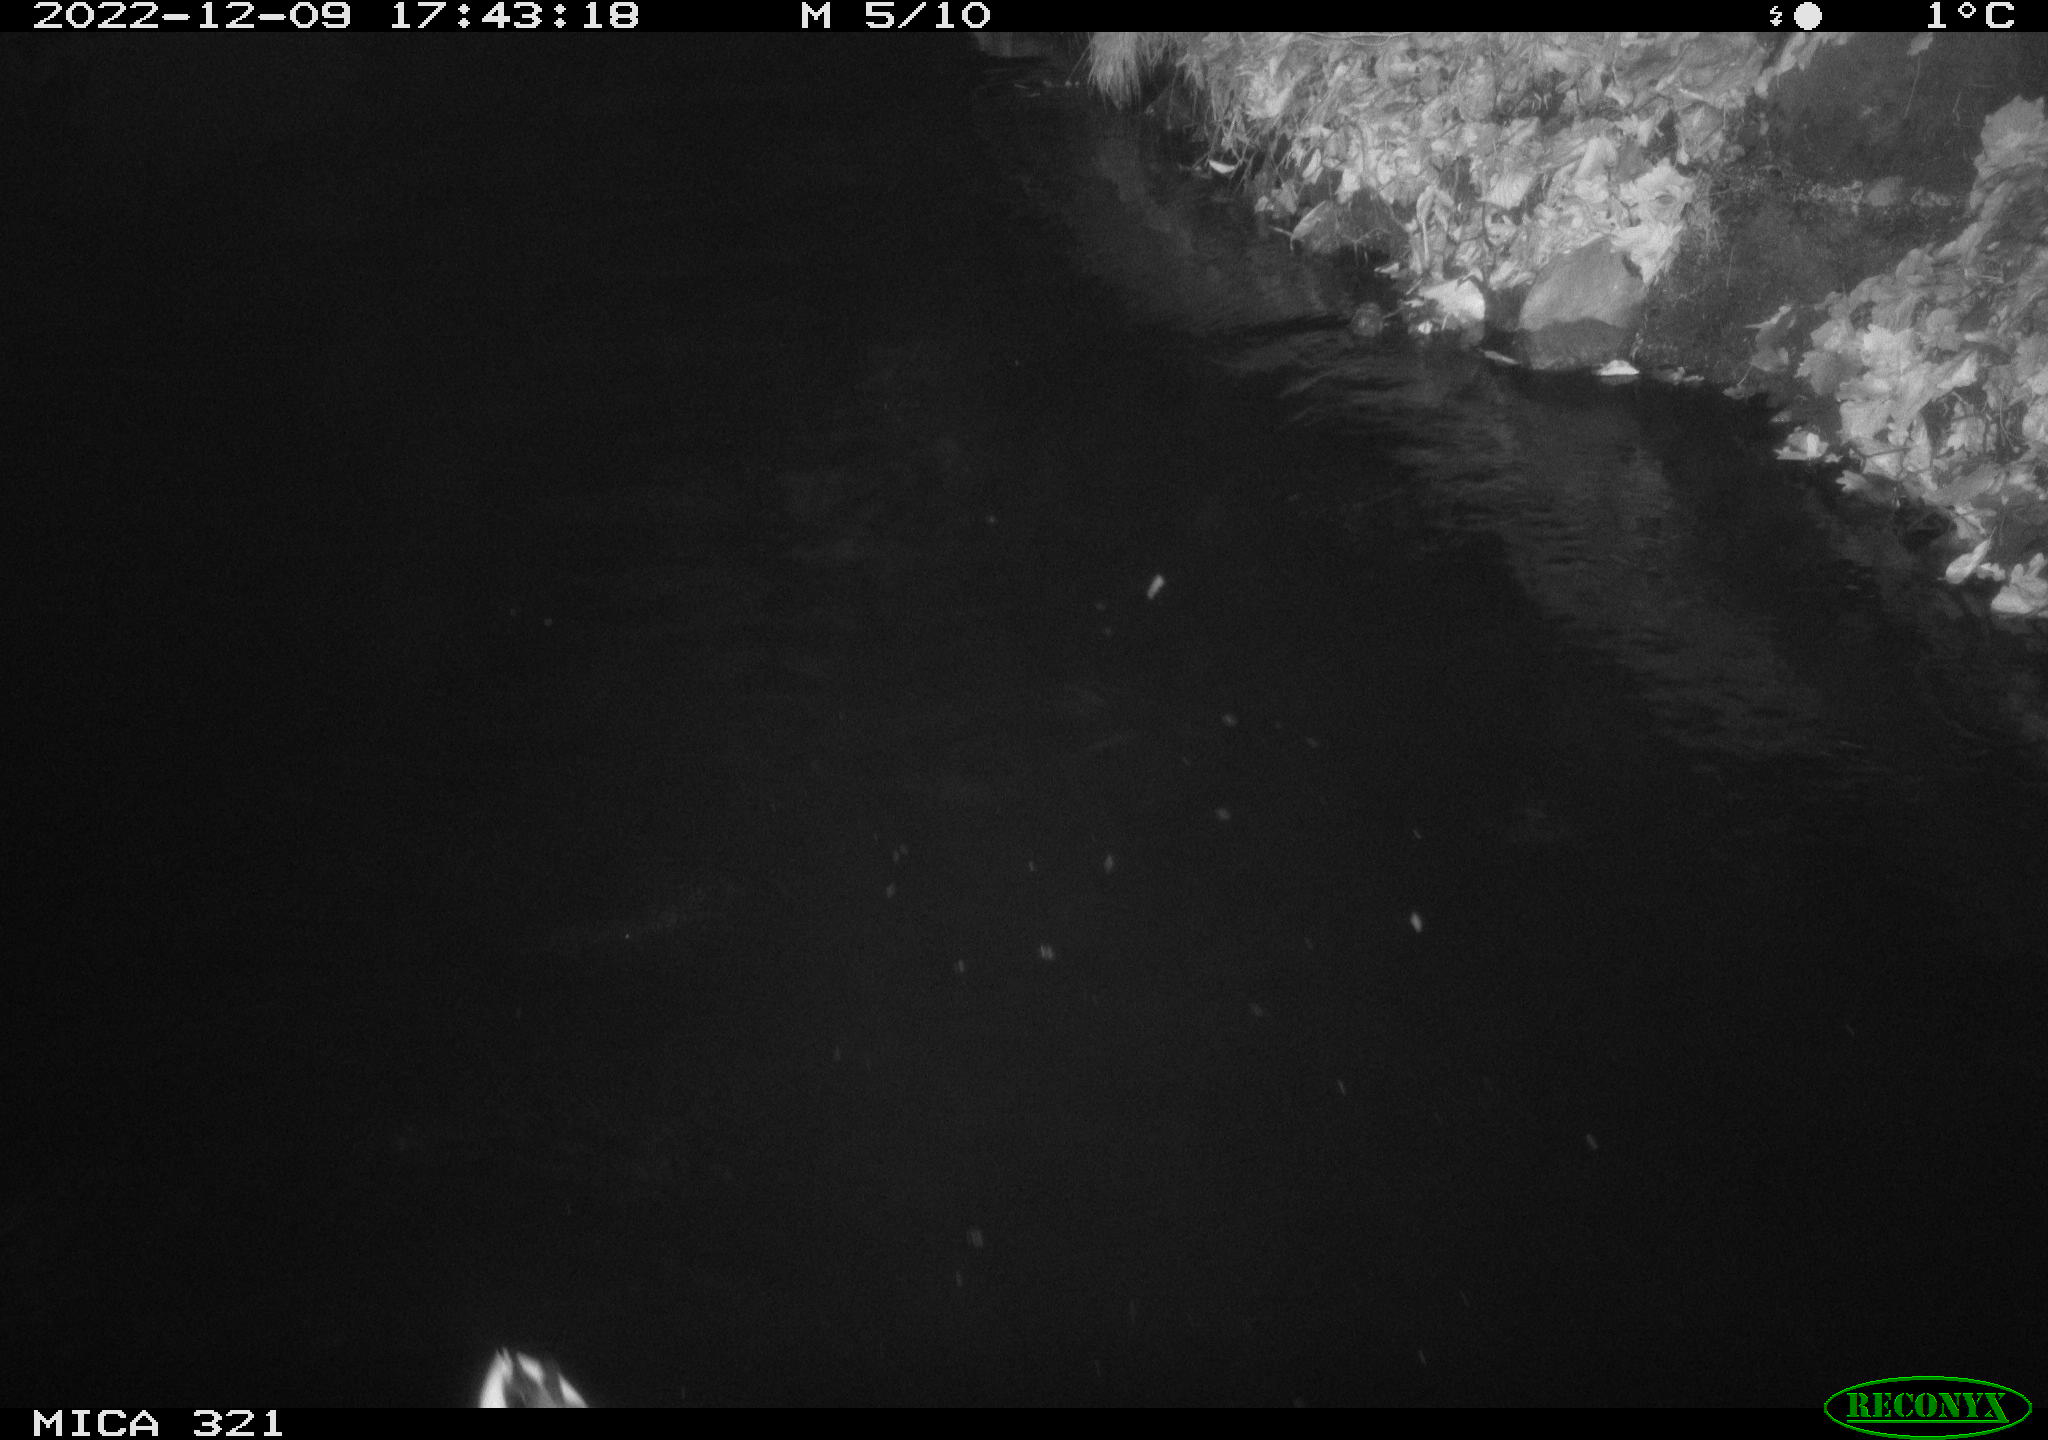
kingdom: Animalia
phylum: Chordata
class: Aves
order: Anseriformes
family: Anatidae
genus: Anas
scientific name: Anas
